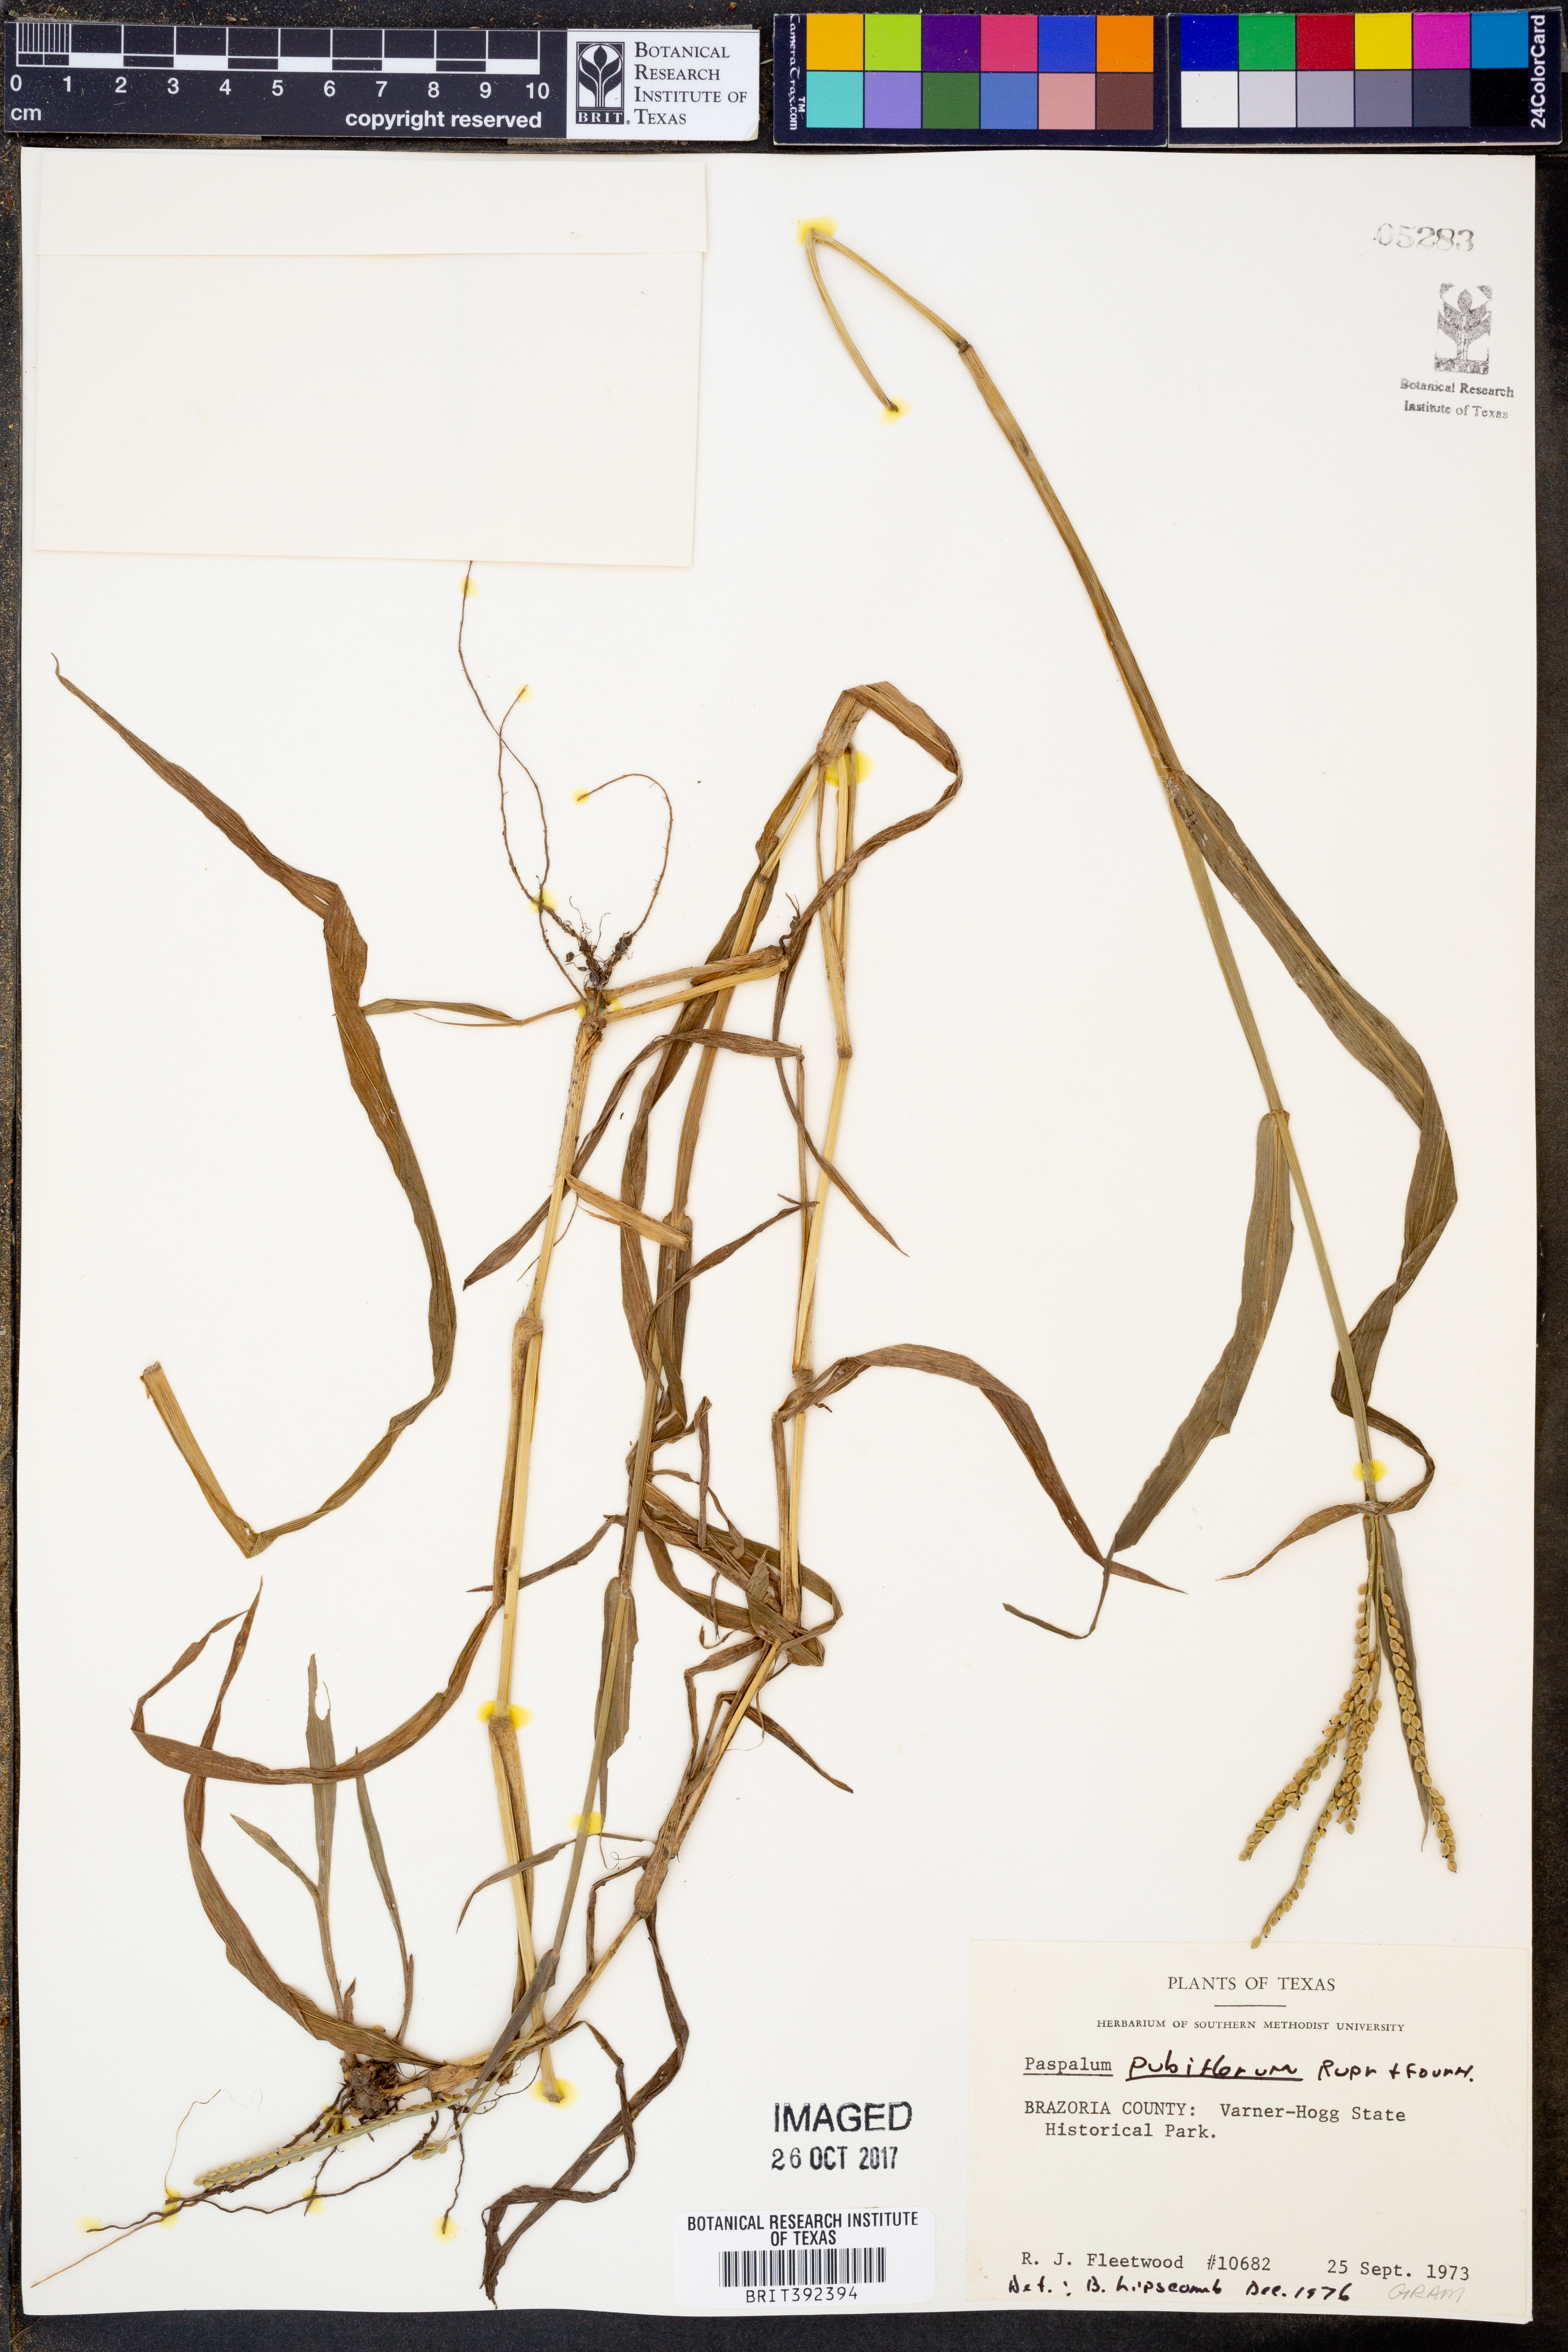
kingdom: Plantae
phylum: Tracheophyta
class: Liliopsida
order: Poales
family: Poaceae
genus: Paspalum
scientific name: Paspalum pubiflorum
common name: Hairy-seed paspalum
